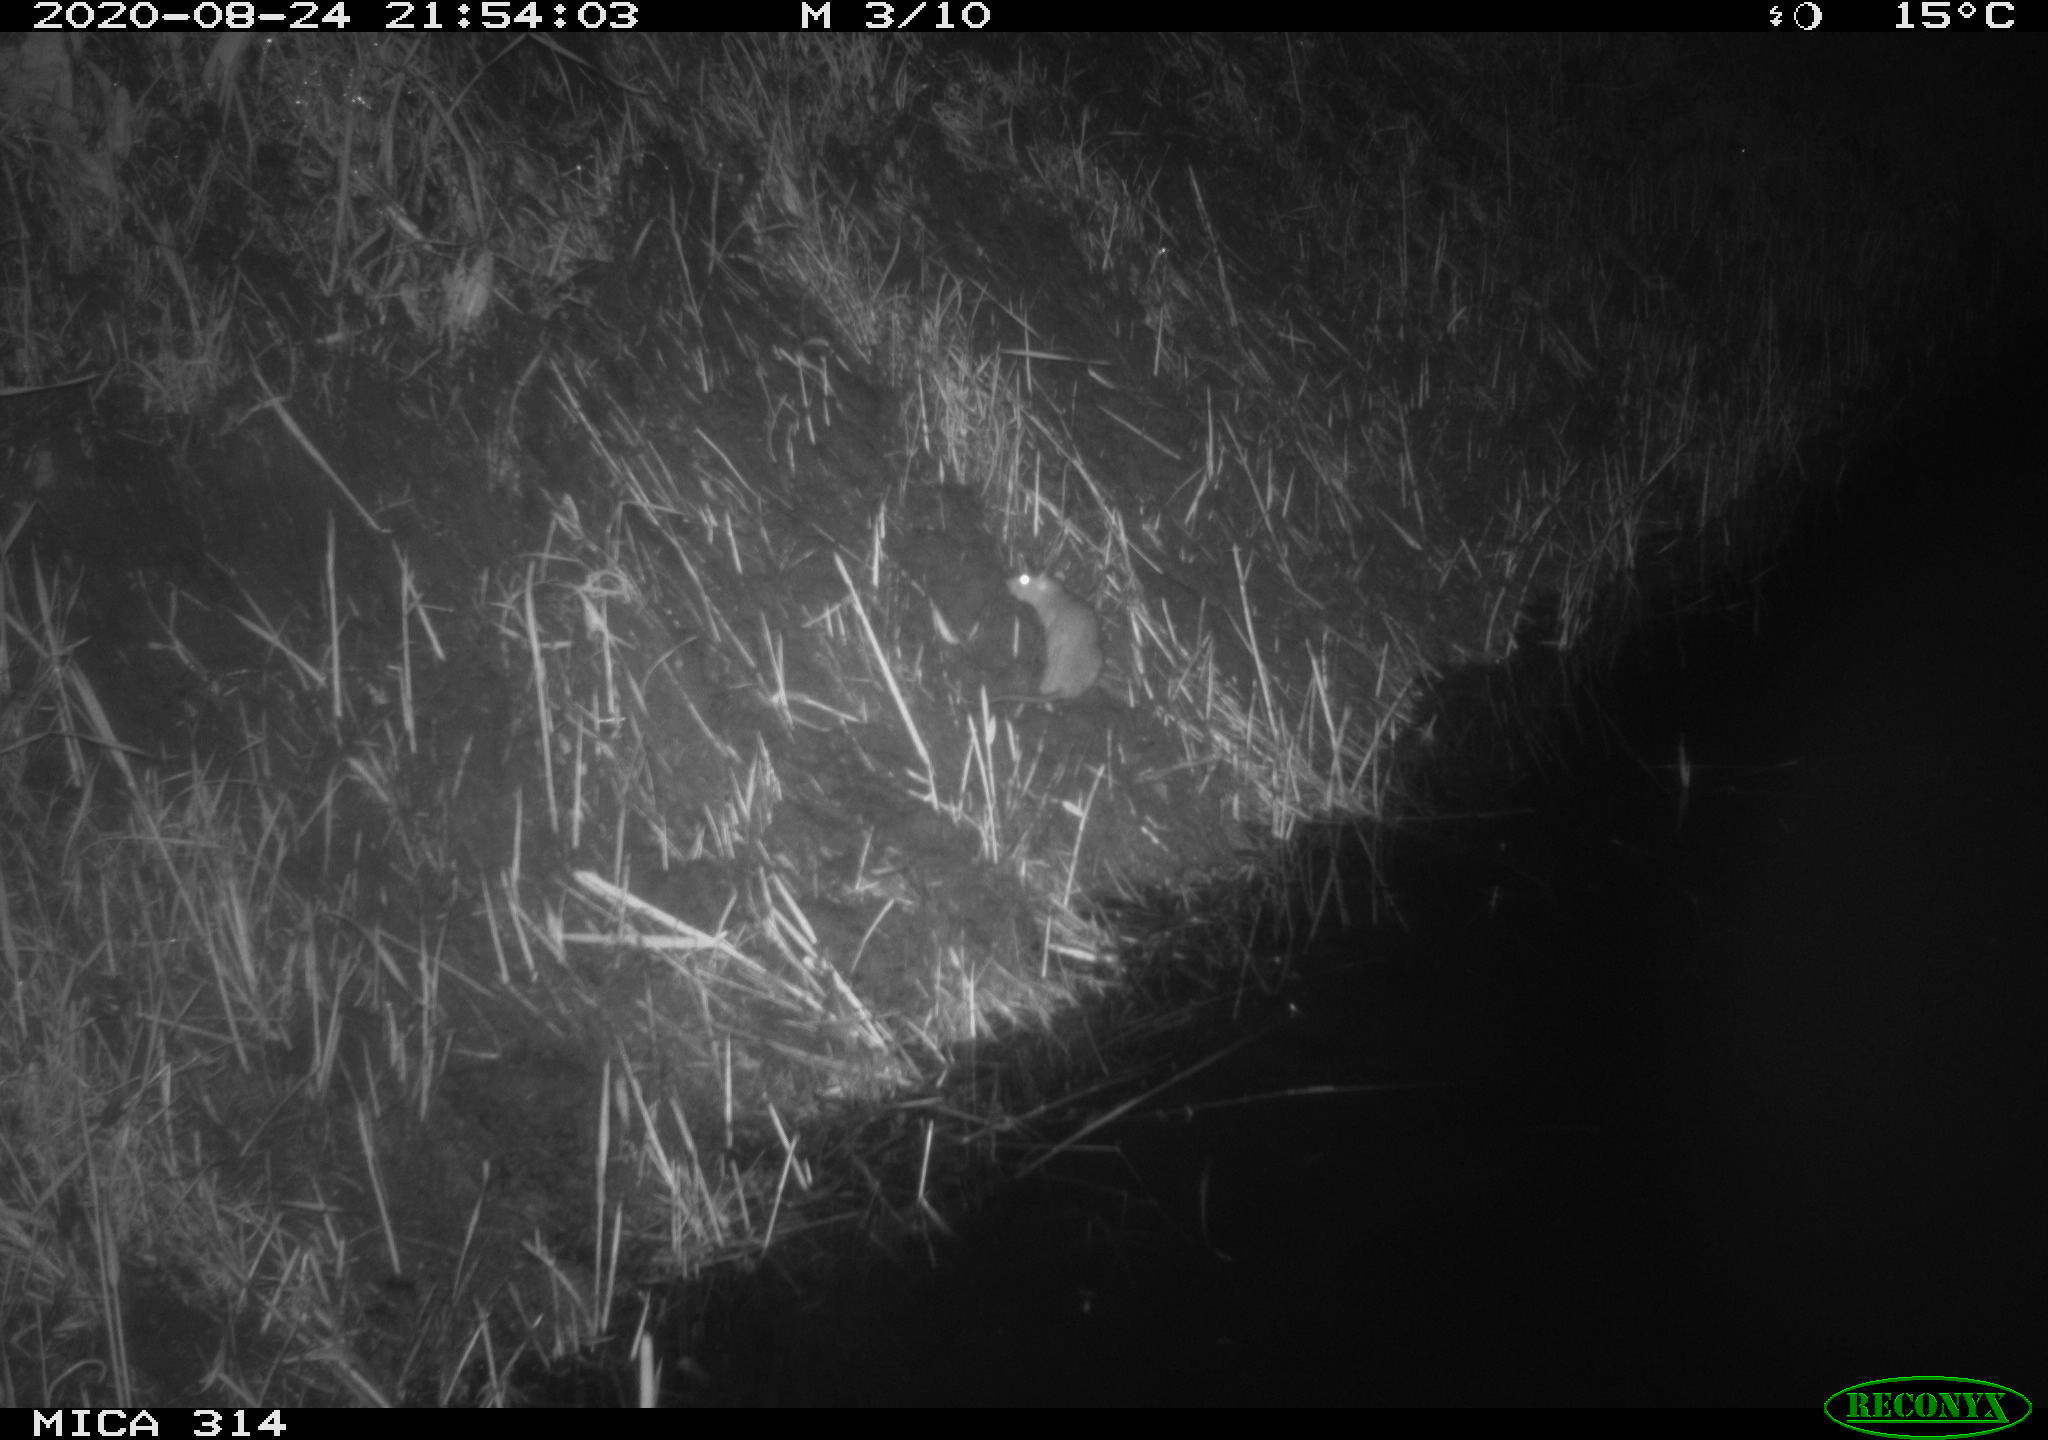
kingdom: Animalia
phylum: Chordata
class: Mammalia
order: Rodentia
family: Muridae
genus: Rattus
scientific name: Rattus norvegicus
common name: Brown rat
